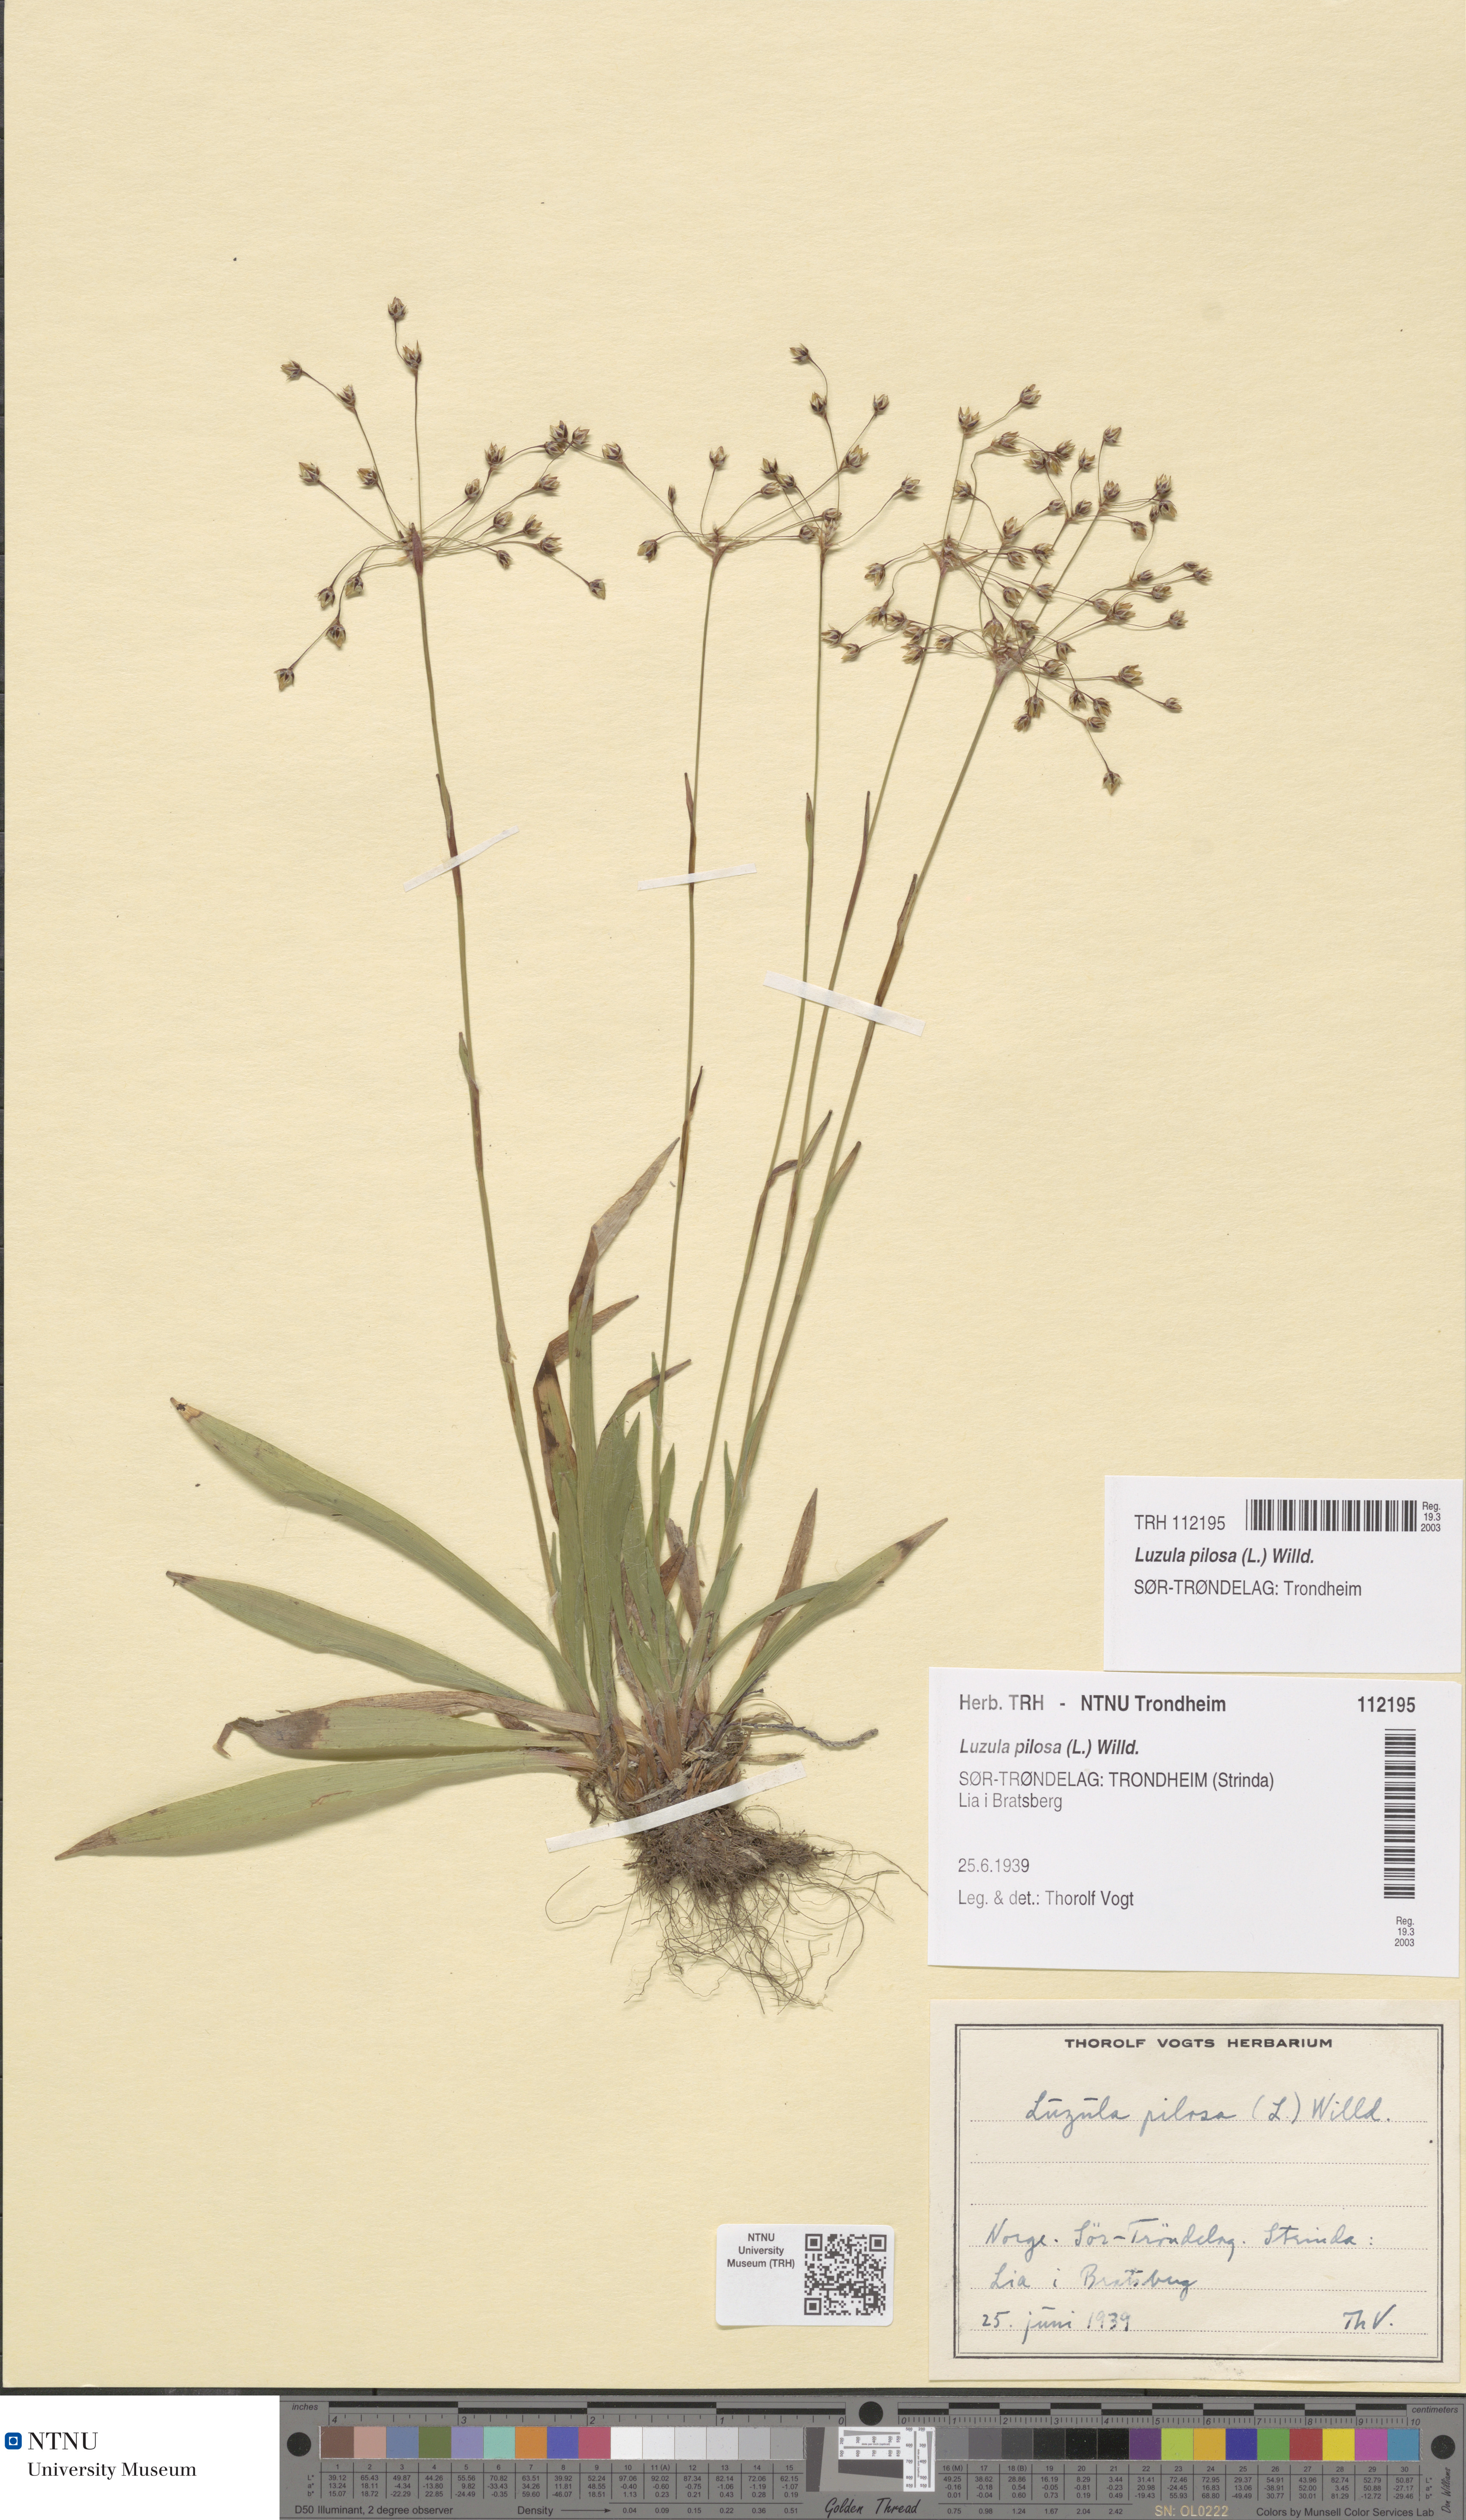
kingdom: Plantae
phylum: Tracheophyta
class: Liliopsida
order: Poales
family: Juncaceae
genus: Luzula
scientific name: Luzula pilosa
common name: Hairy wood-rush
